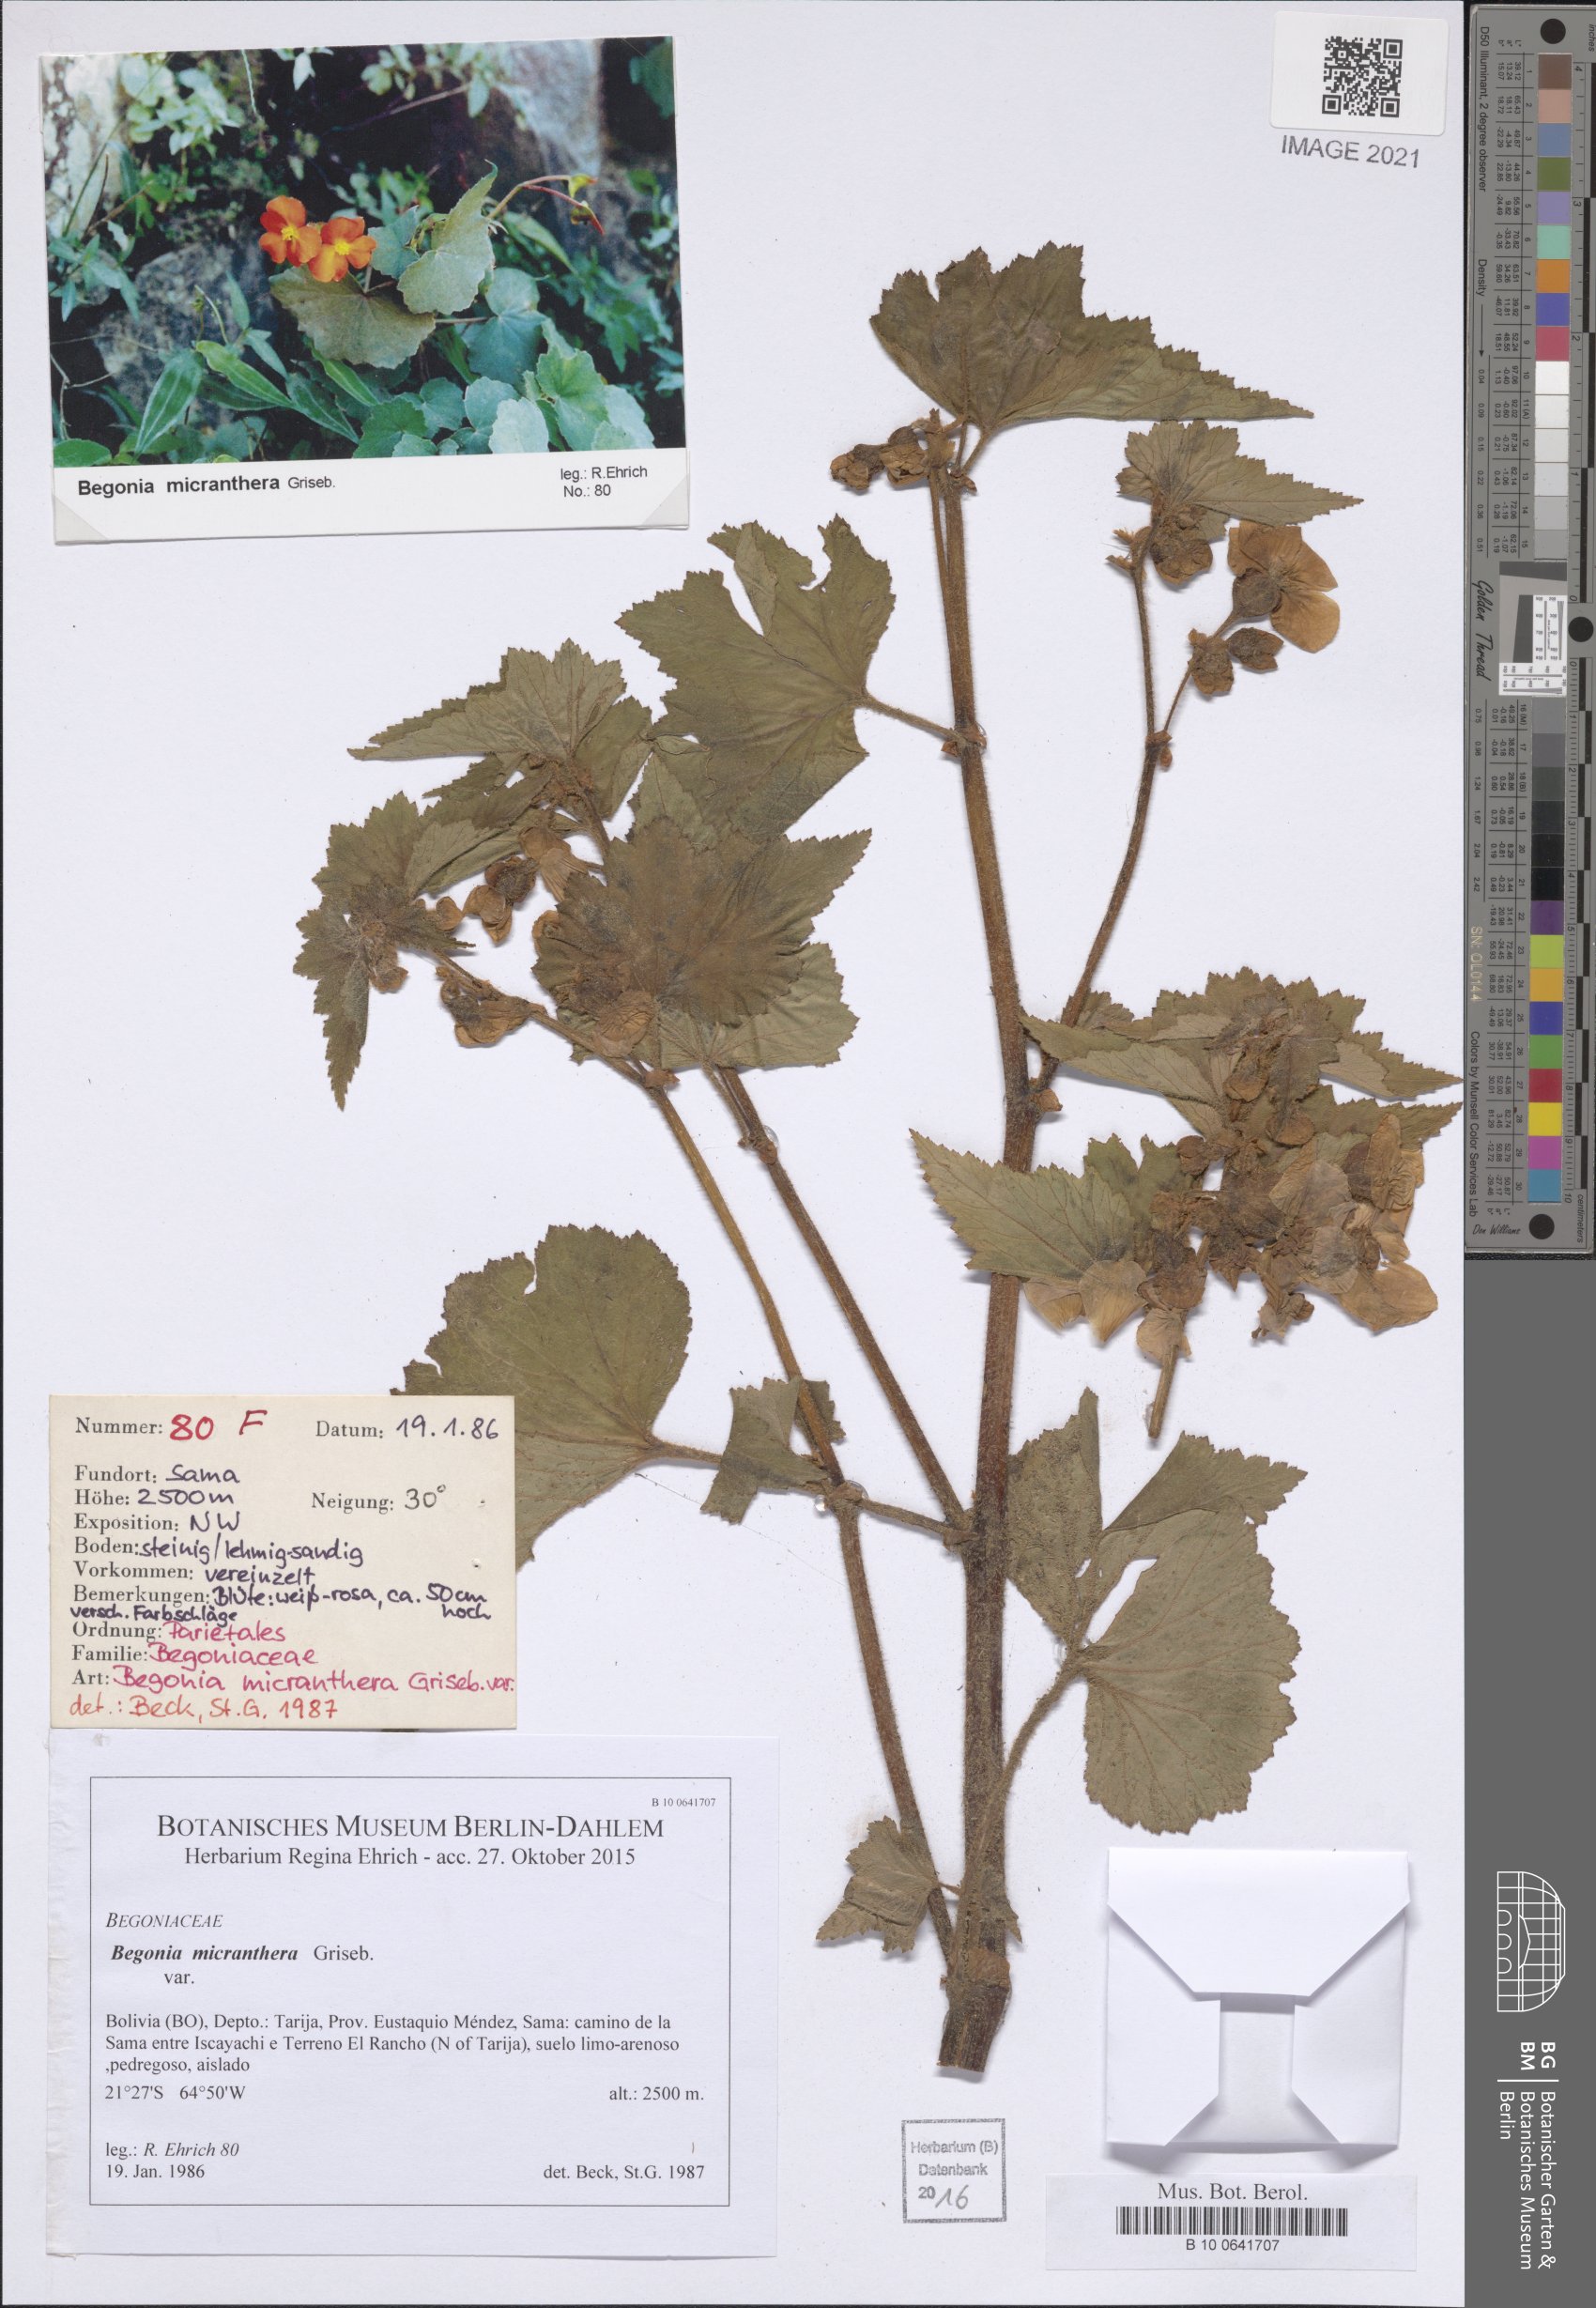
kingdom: Plantae
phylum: Tracheophyta
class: Magnoliopsida
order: Cucurbitales
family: Begoniaceae
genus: Begonia
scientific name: Begonia micranthera
